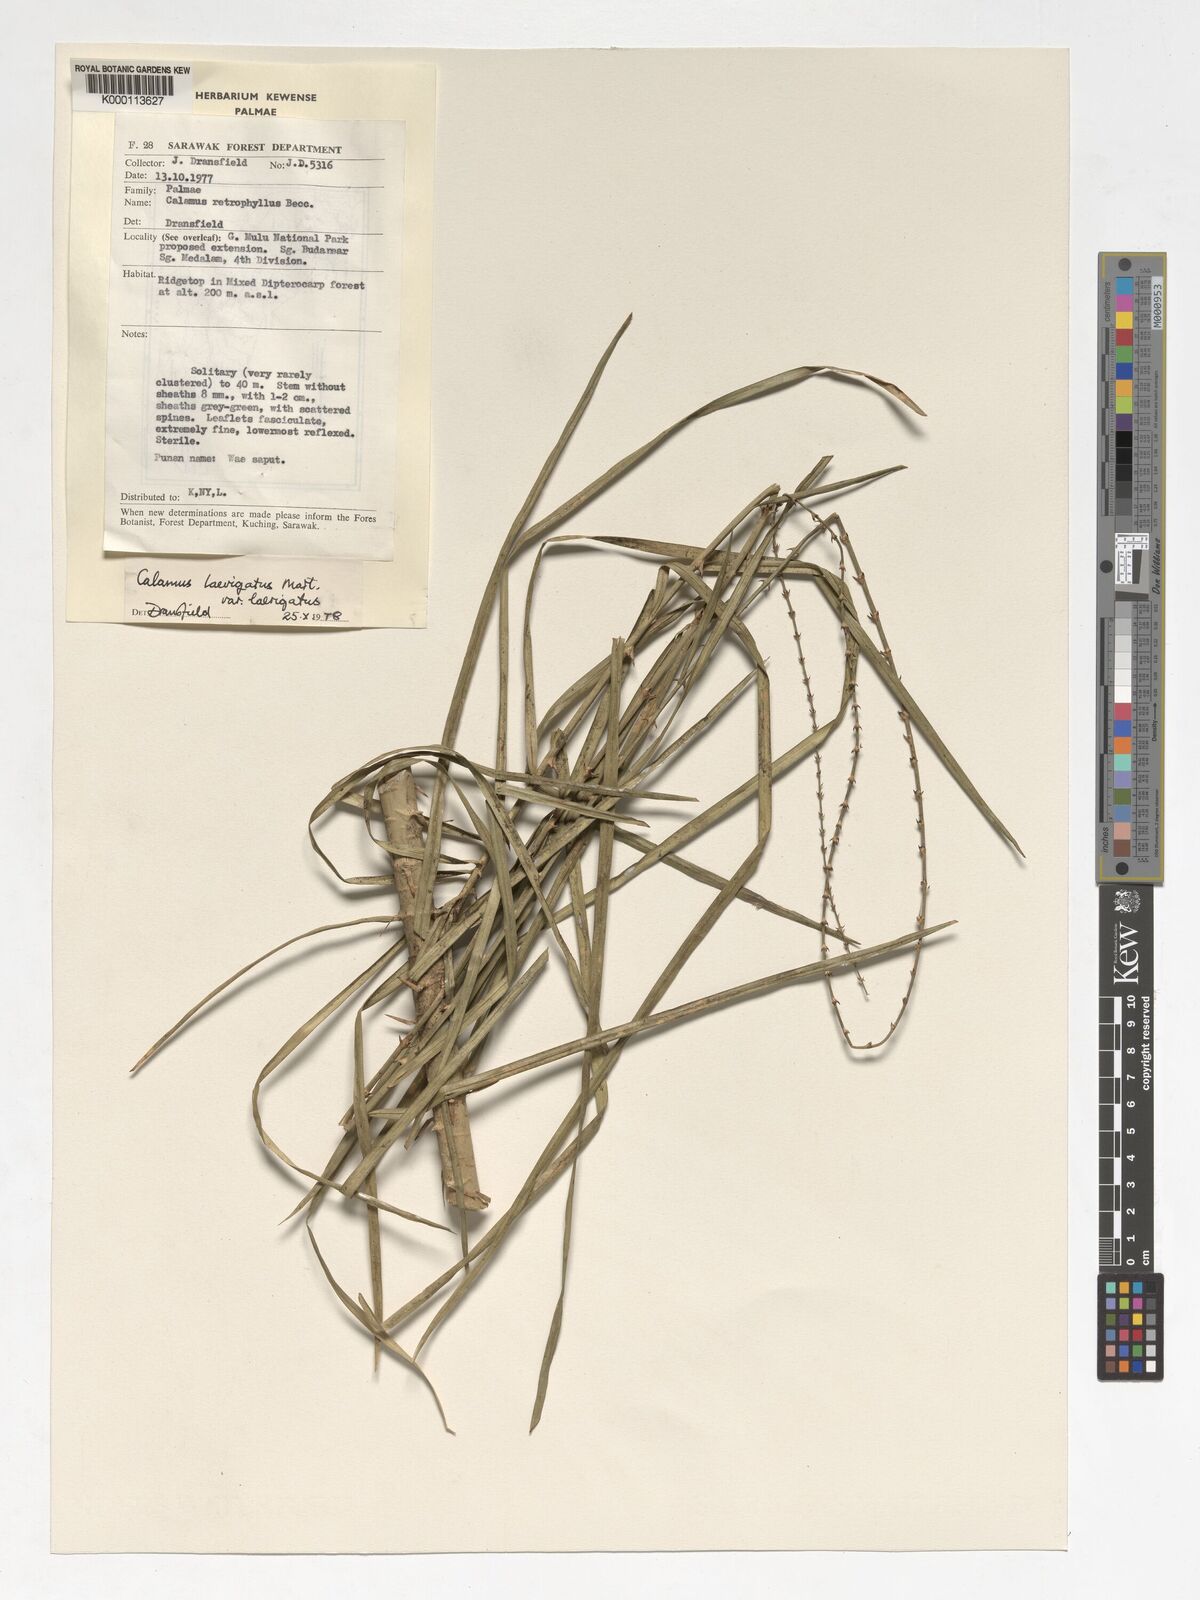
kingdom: Plantae
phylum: Tracheophyta
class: Liliopsida
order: Arecales
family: Arecaceae
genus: Calamus
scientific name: Calamus
